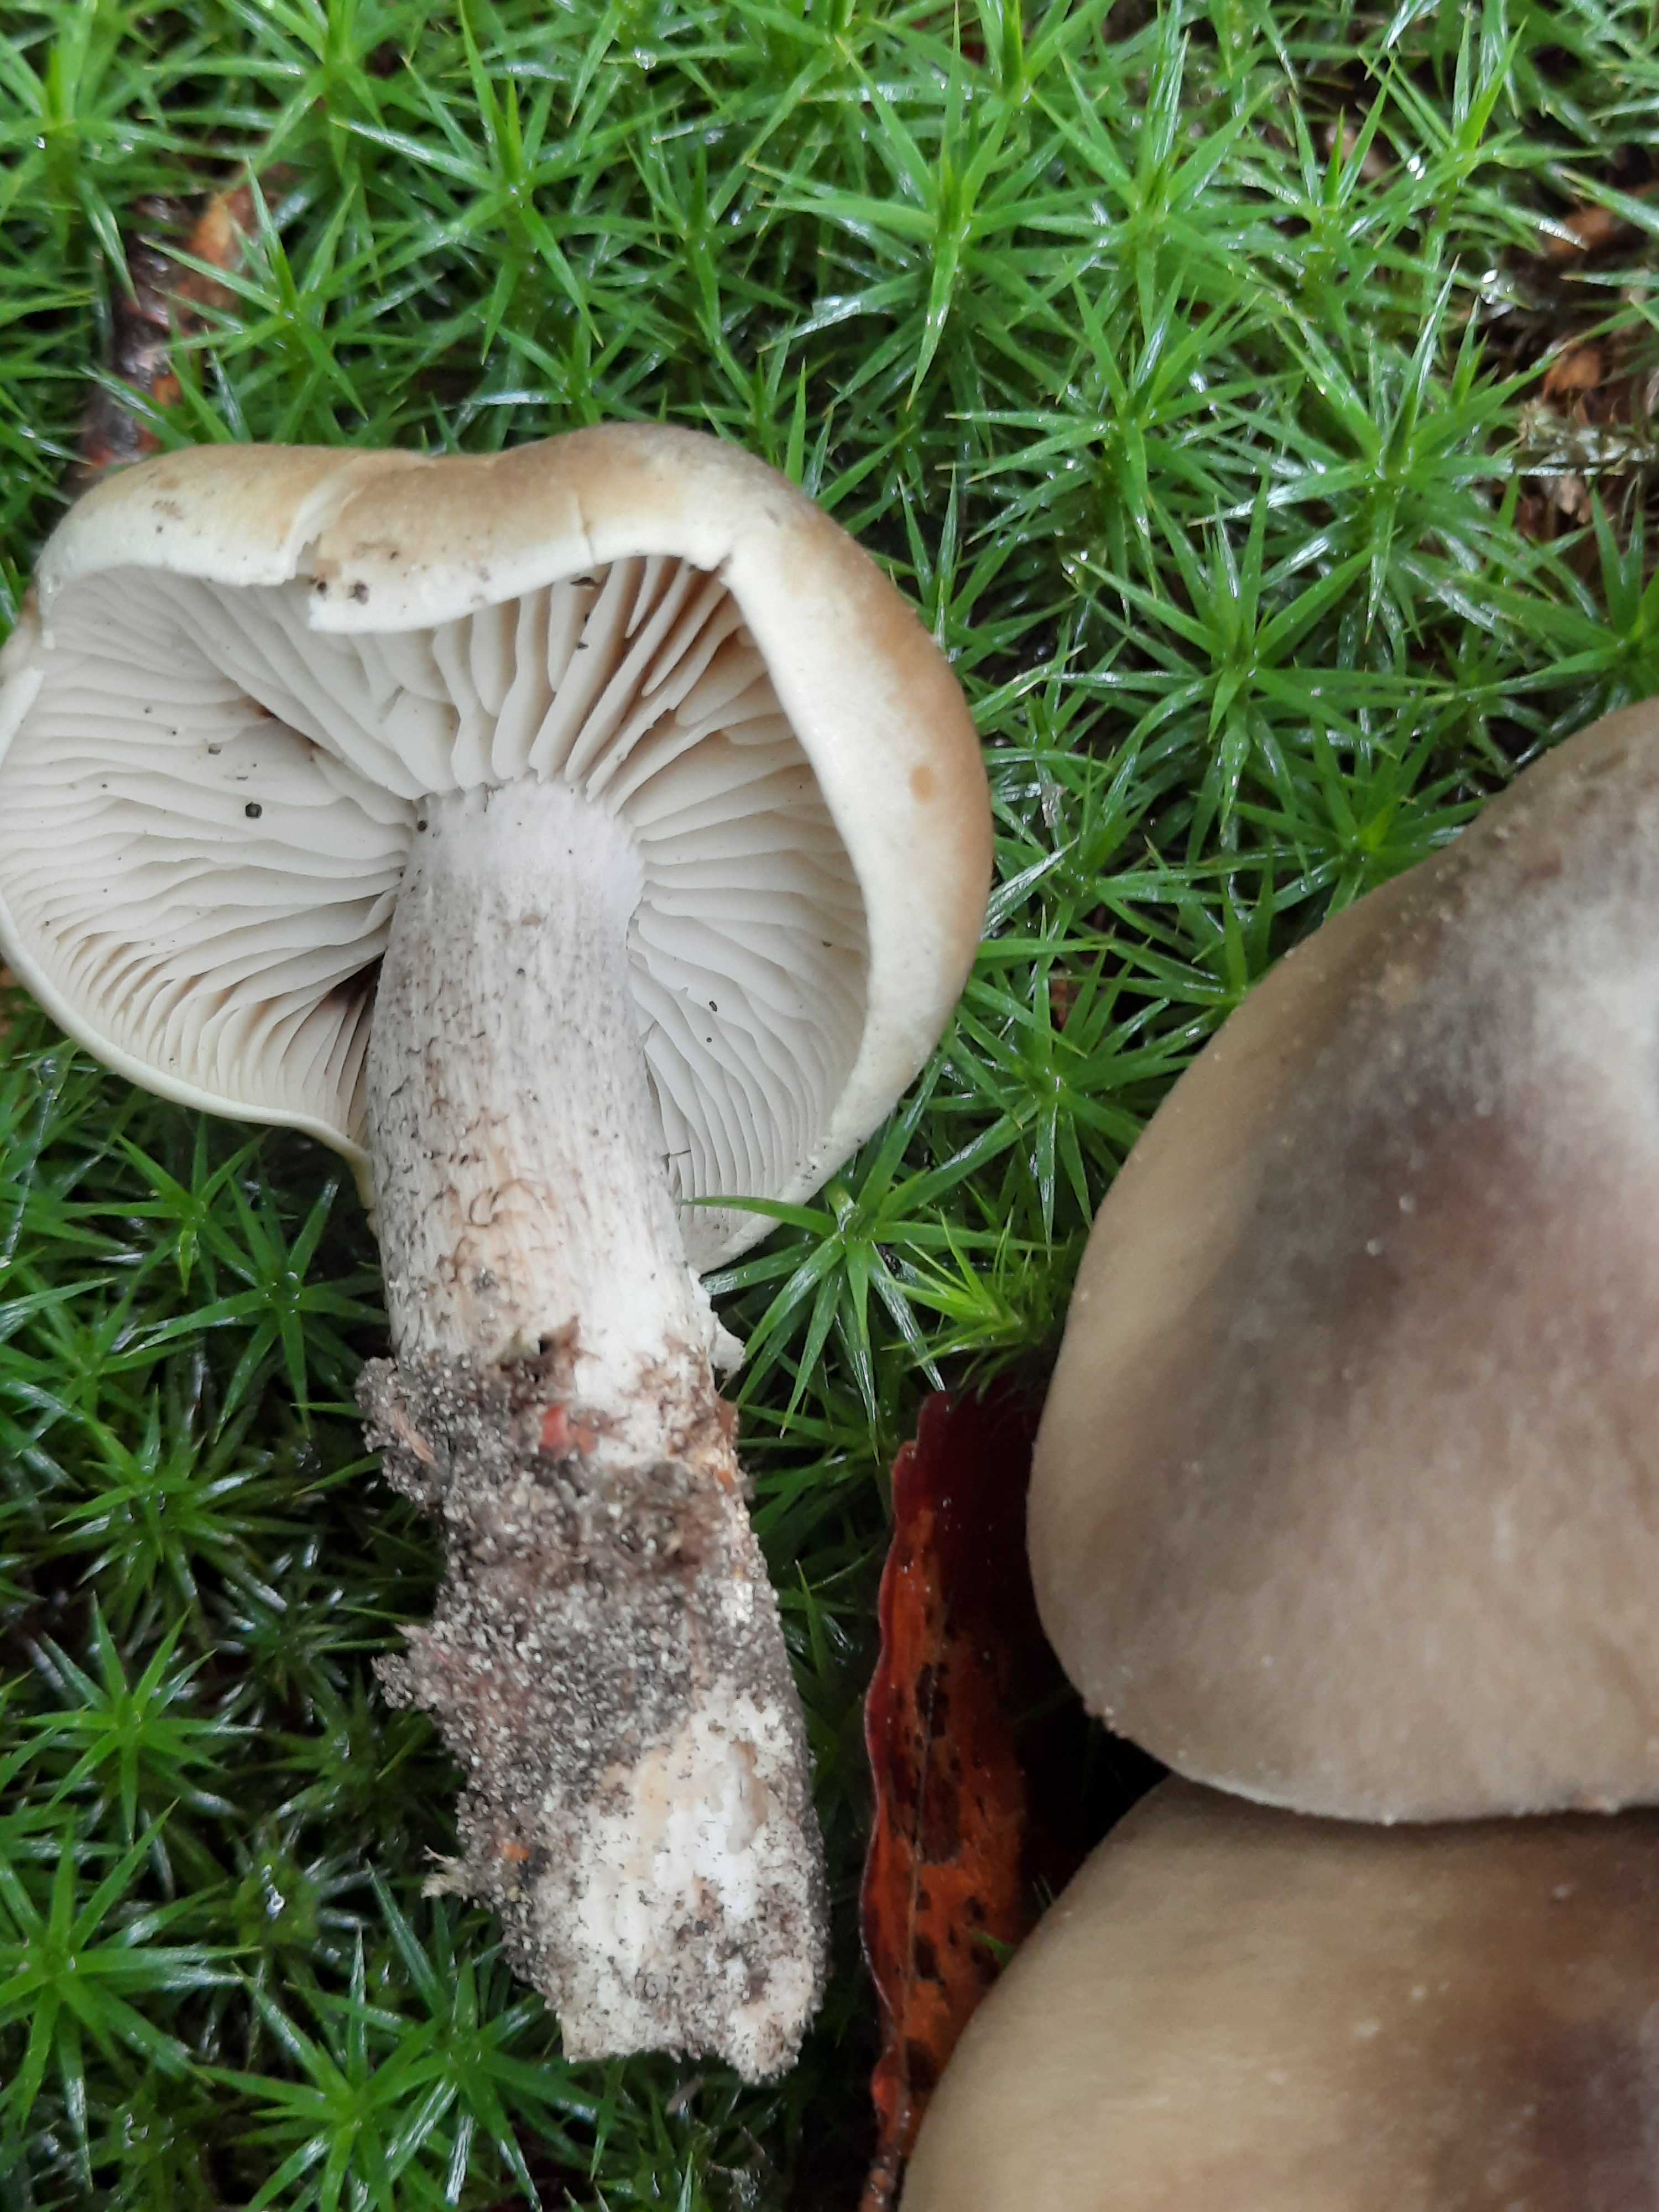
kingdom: Fungi
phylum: Basidiomycota
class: Agaricomycetes
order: Agaricales
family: Tricholomataceae
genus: Tricholoma
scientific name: Tricholoma saponaceum
